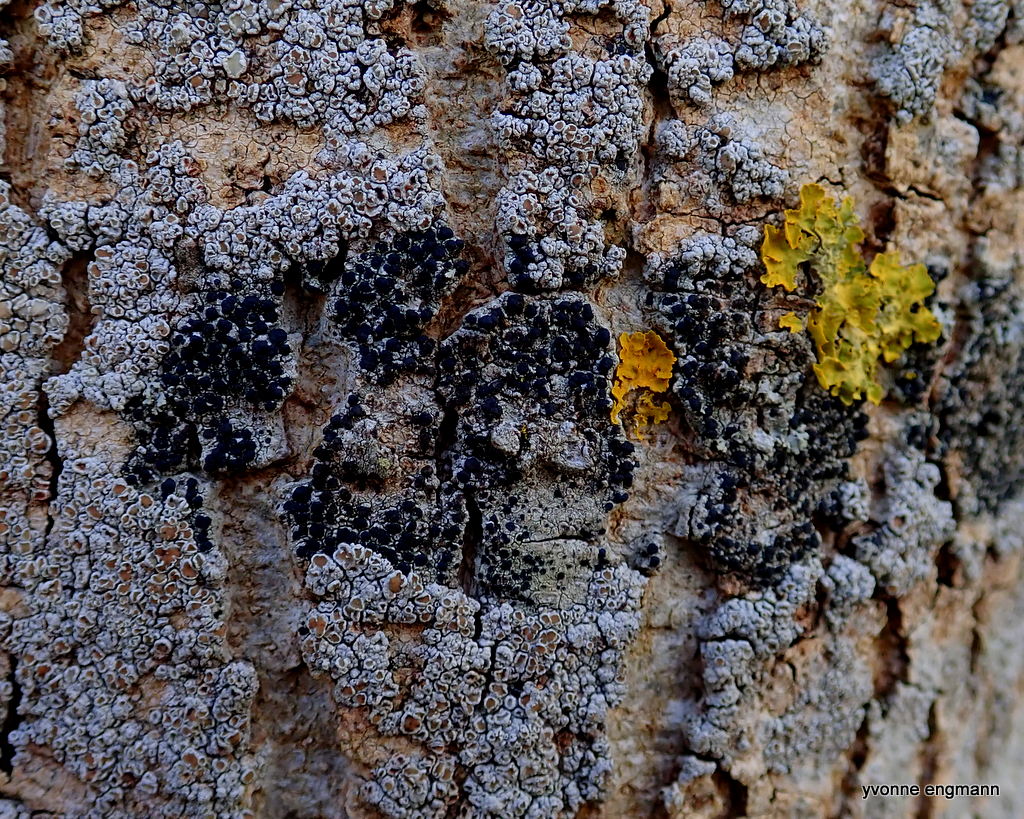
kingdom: Fungi
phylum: Ascomycota
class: Lecanoromycetes
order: Lecanorales
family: Lecanoraceae
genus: Lecidella
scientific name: Lecidella elaeochroma
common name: grågrøn skivelav
